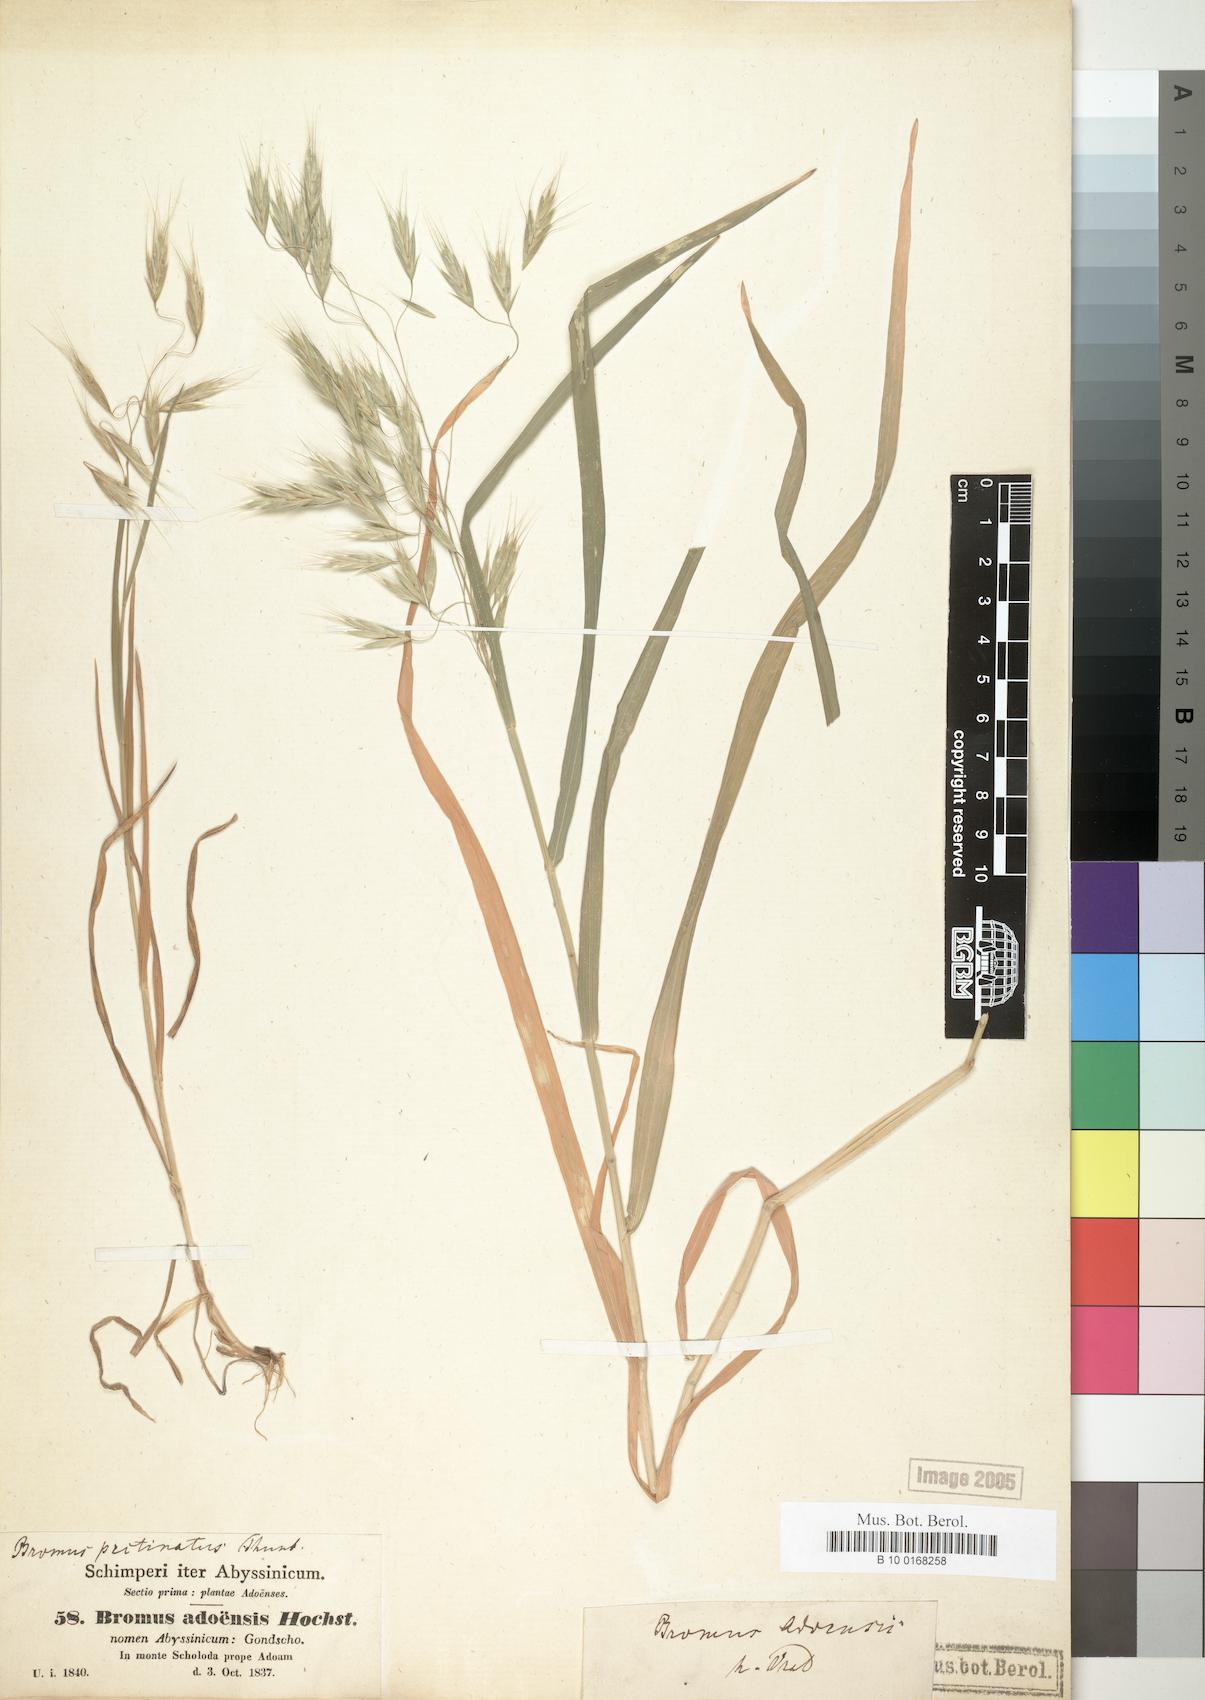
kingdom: Plantae
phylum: Tracheophyta
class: Liliopsida
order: Poales
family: Poaceae
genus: Bromus
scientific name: Bromus pectinatus
